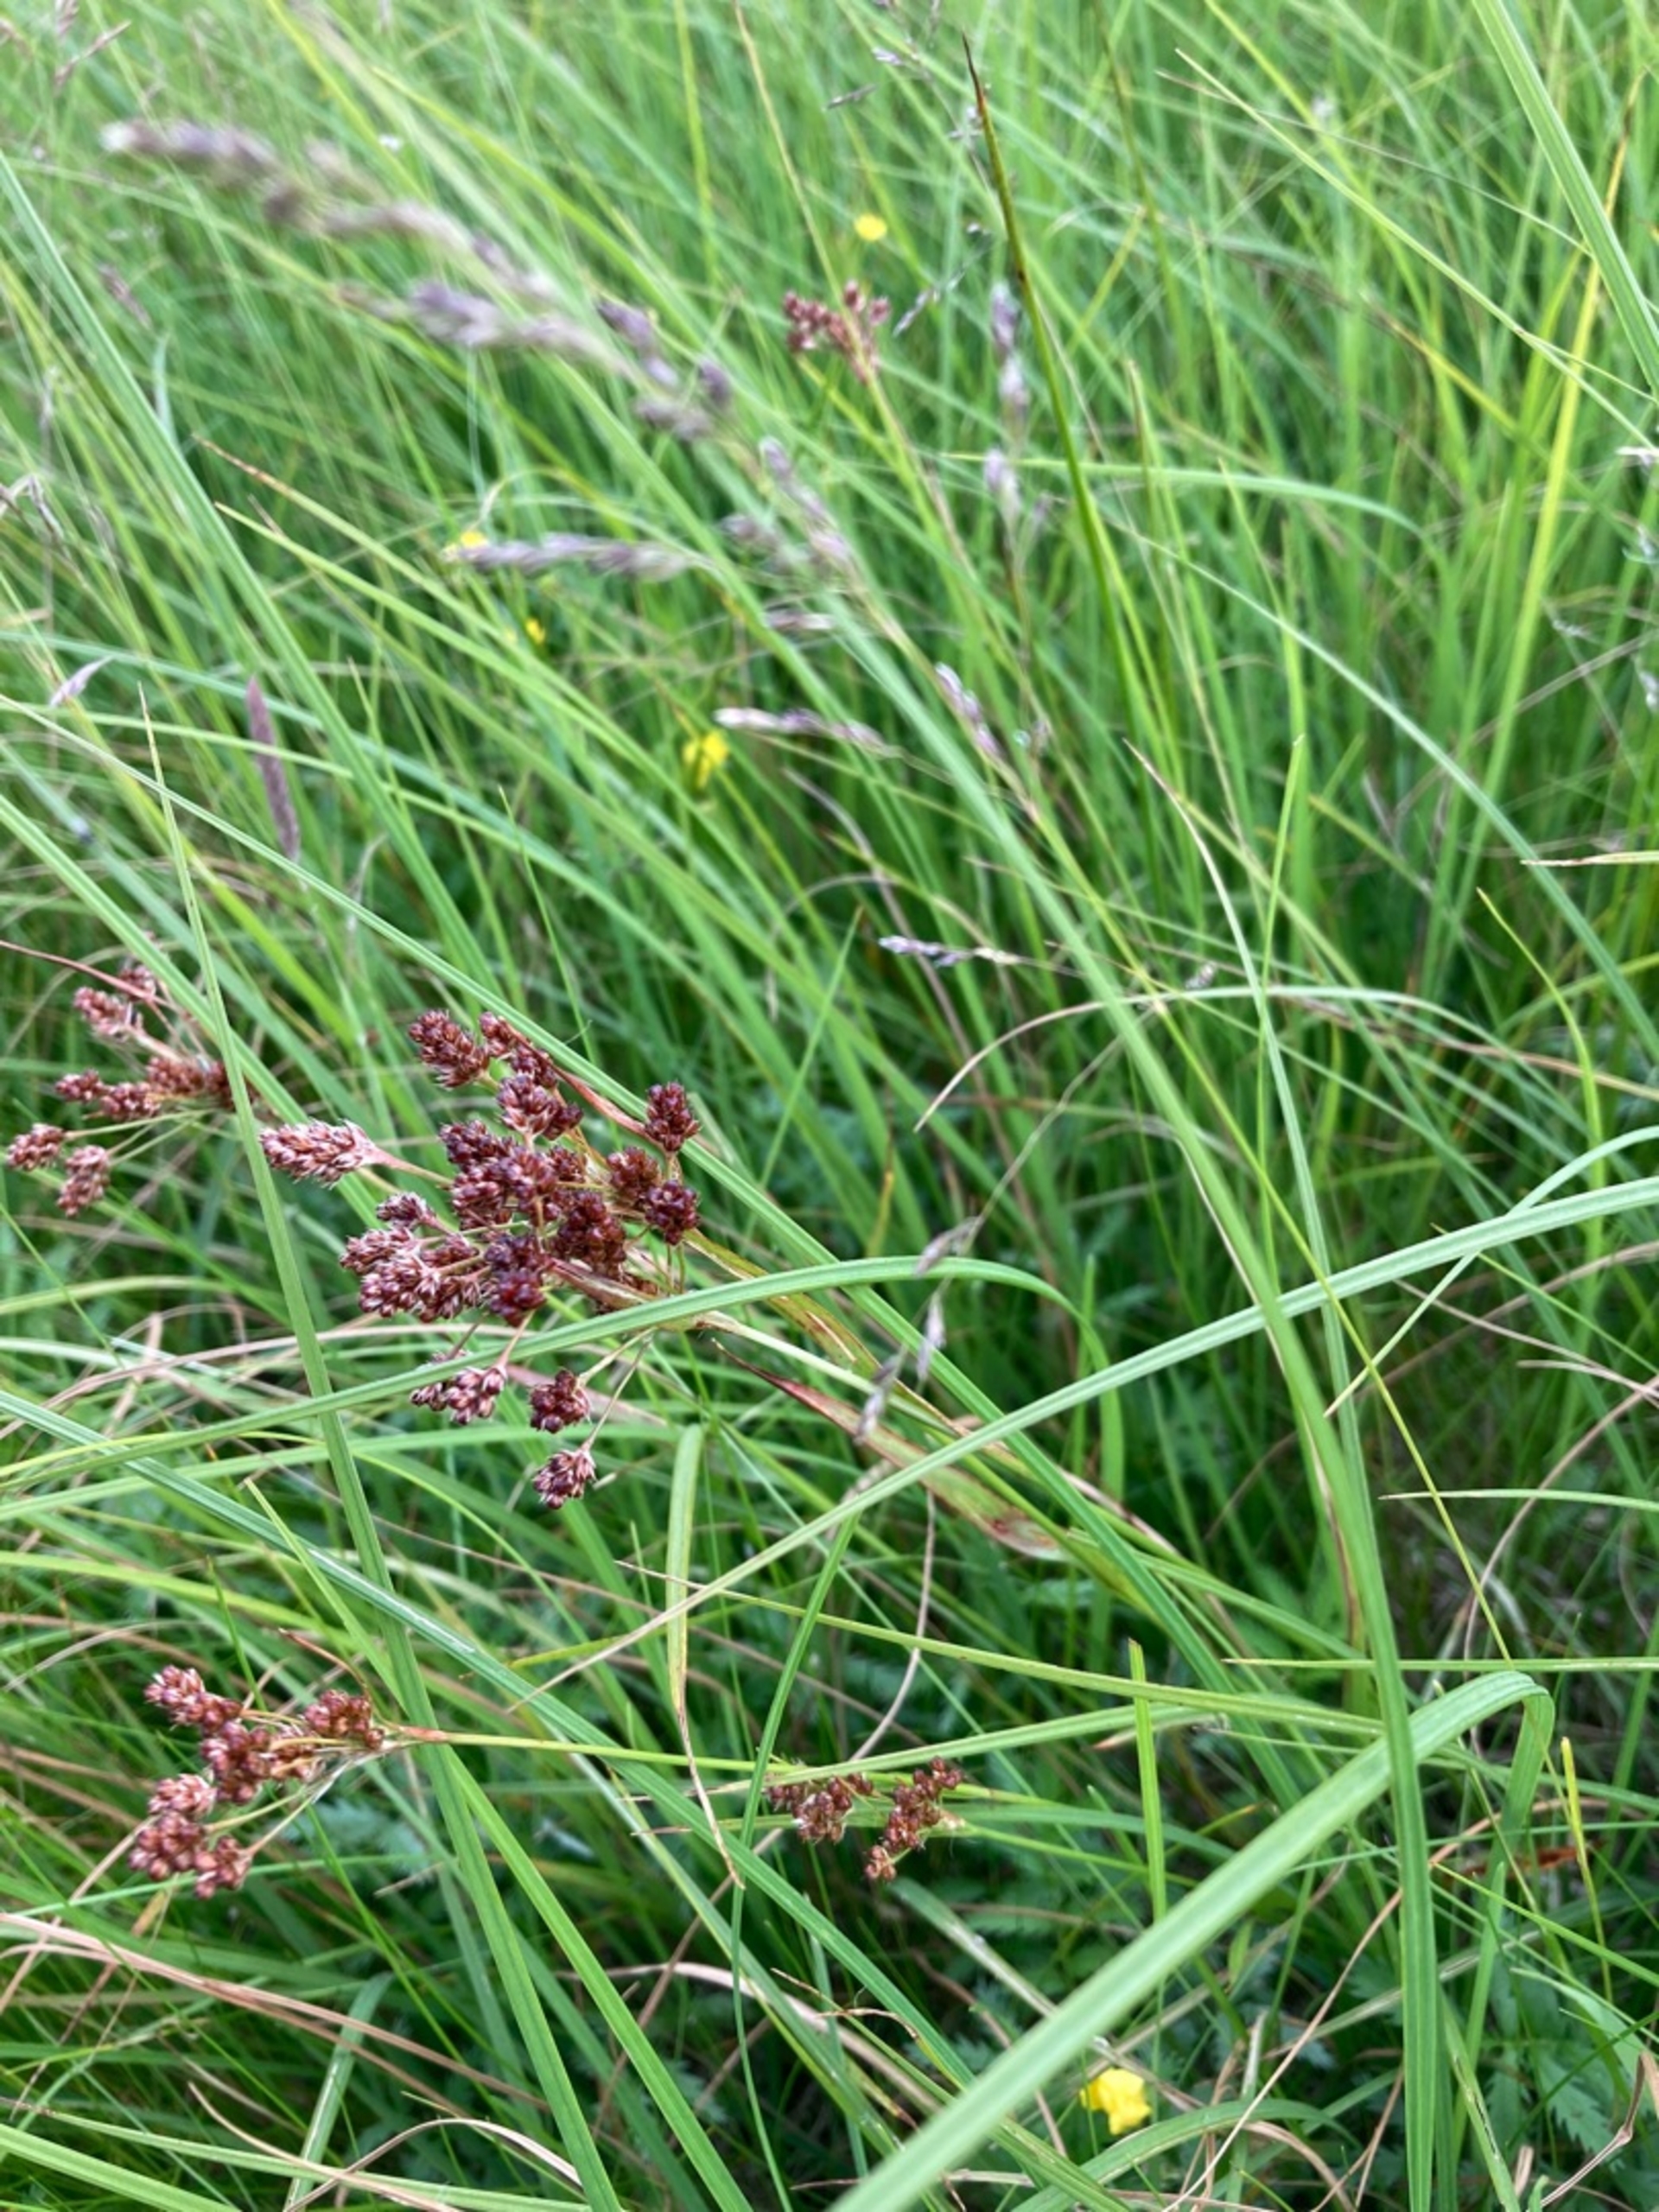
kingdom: Plantae
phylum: Tracheophyta
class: Liliopsida
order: Poales
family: Juncaceae
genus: Luzula
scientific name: Luzula multiflora
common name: Mangeblomstret frytle
